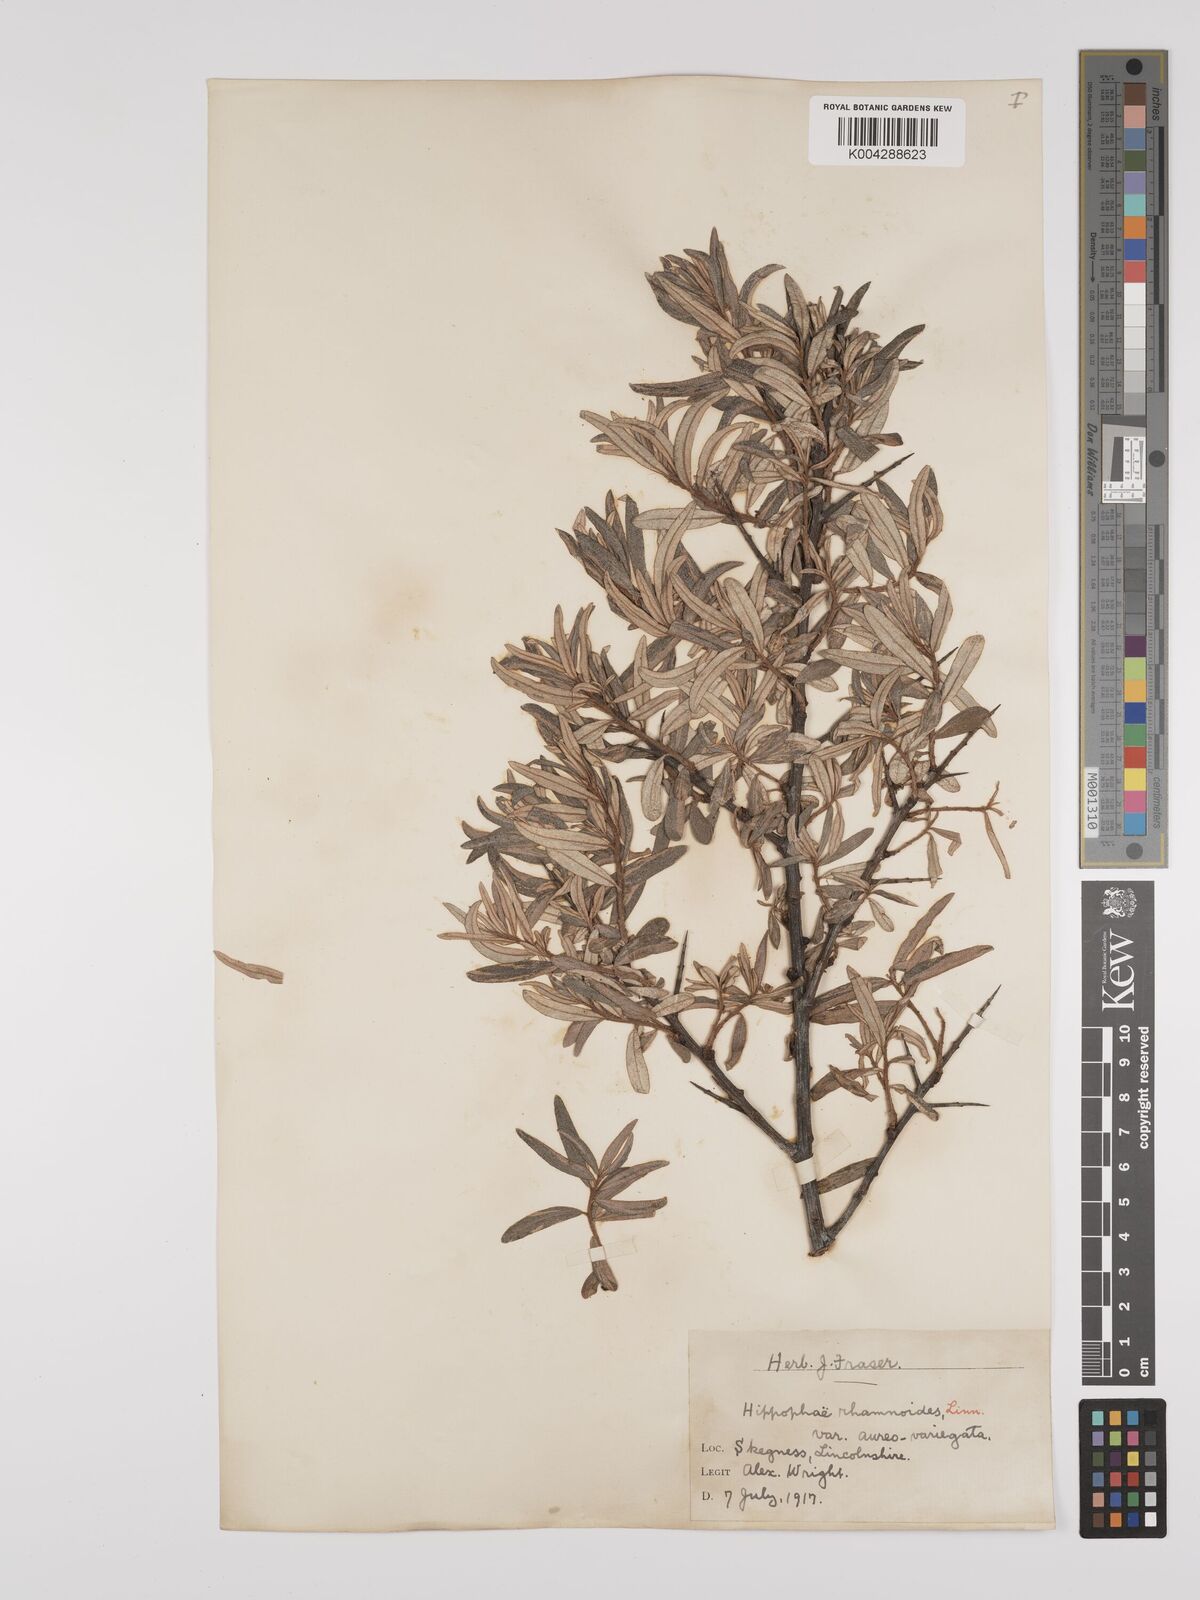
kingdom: Plantae
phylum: Tracheophyta
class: Magnoliopsida
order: Rosales
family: Elaeagnaceae
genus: Hippophae
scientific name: Hippophae rhamnoides
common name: Sea-buckthorn
